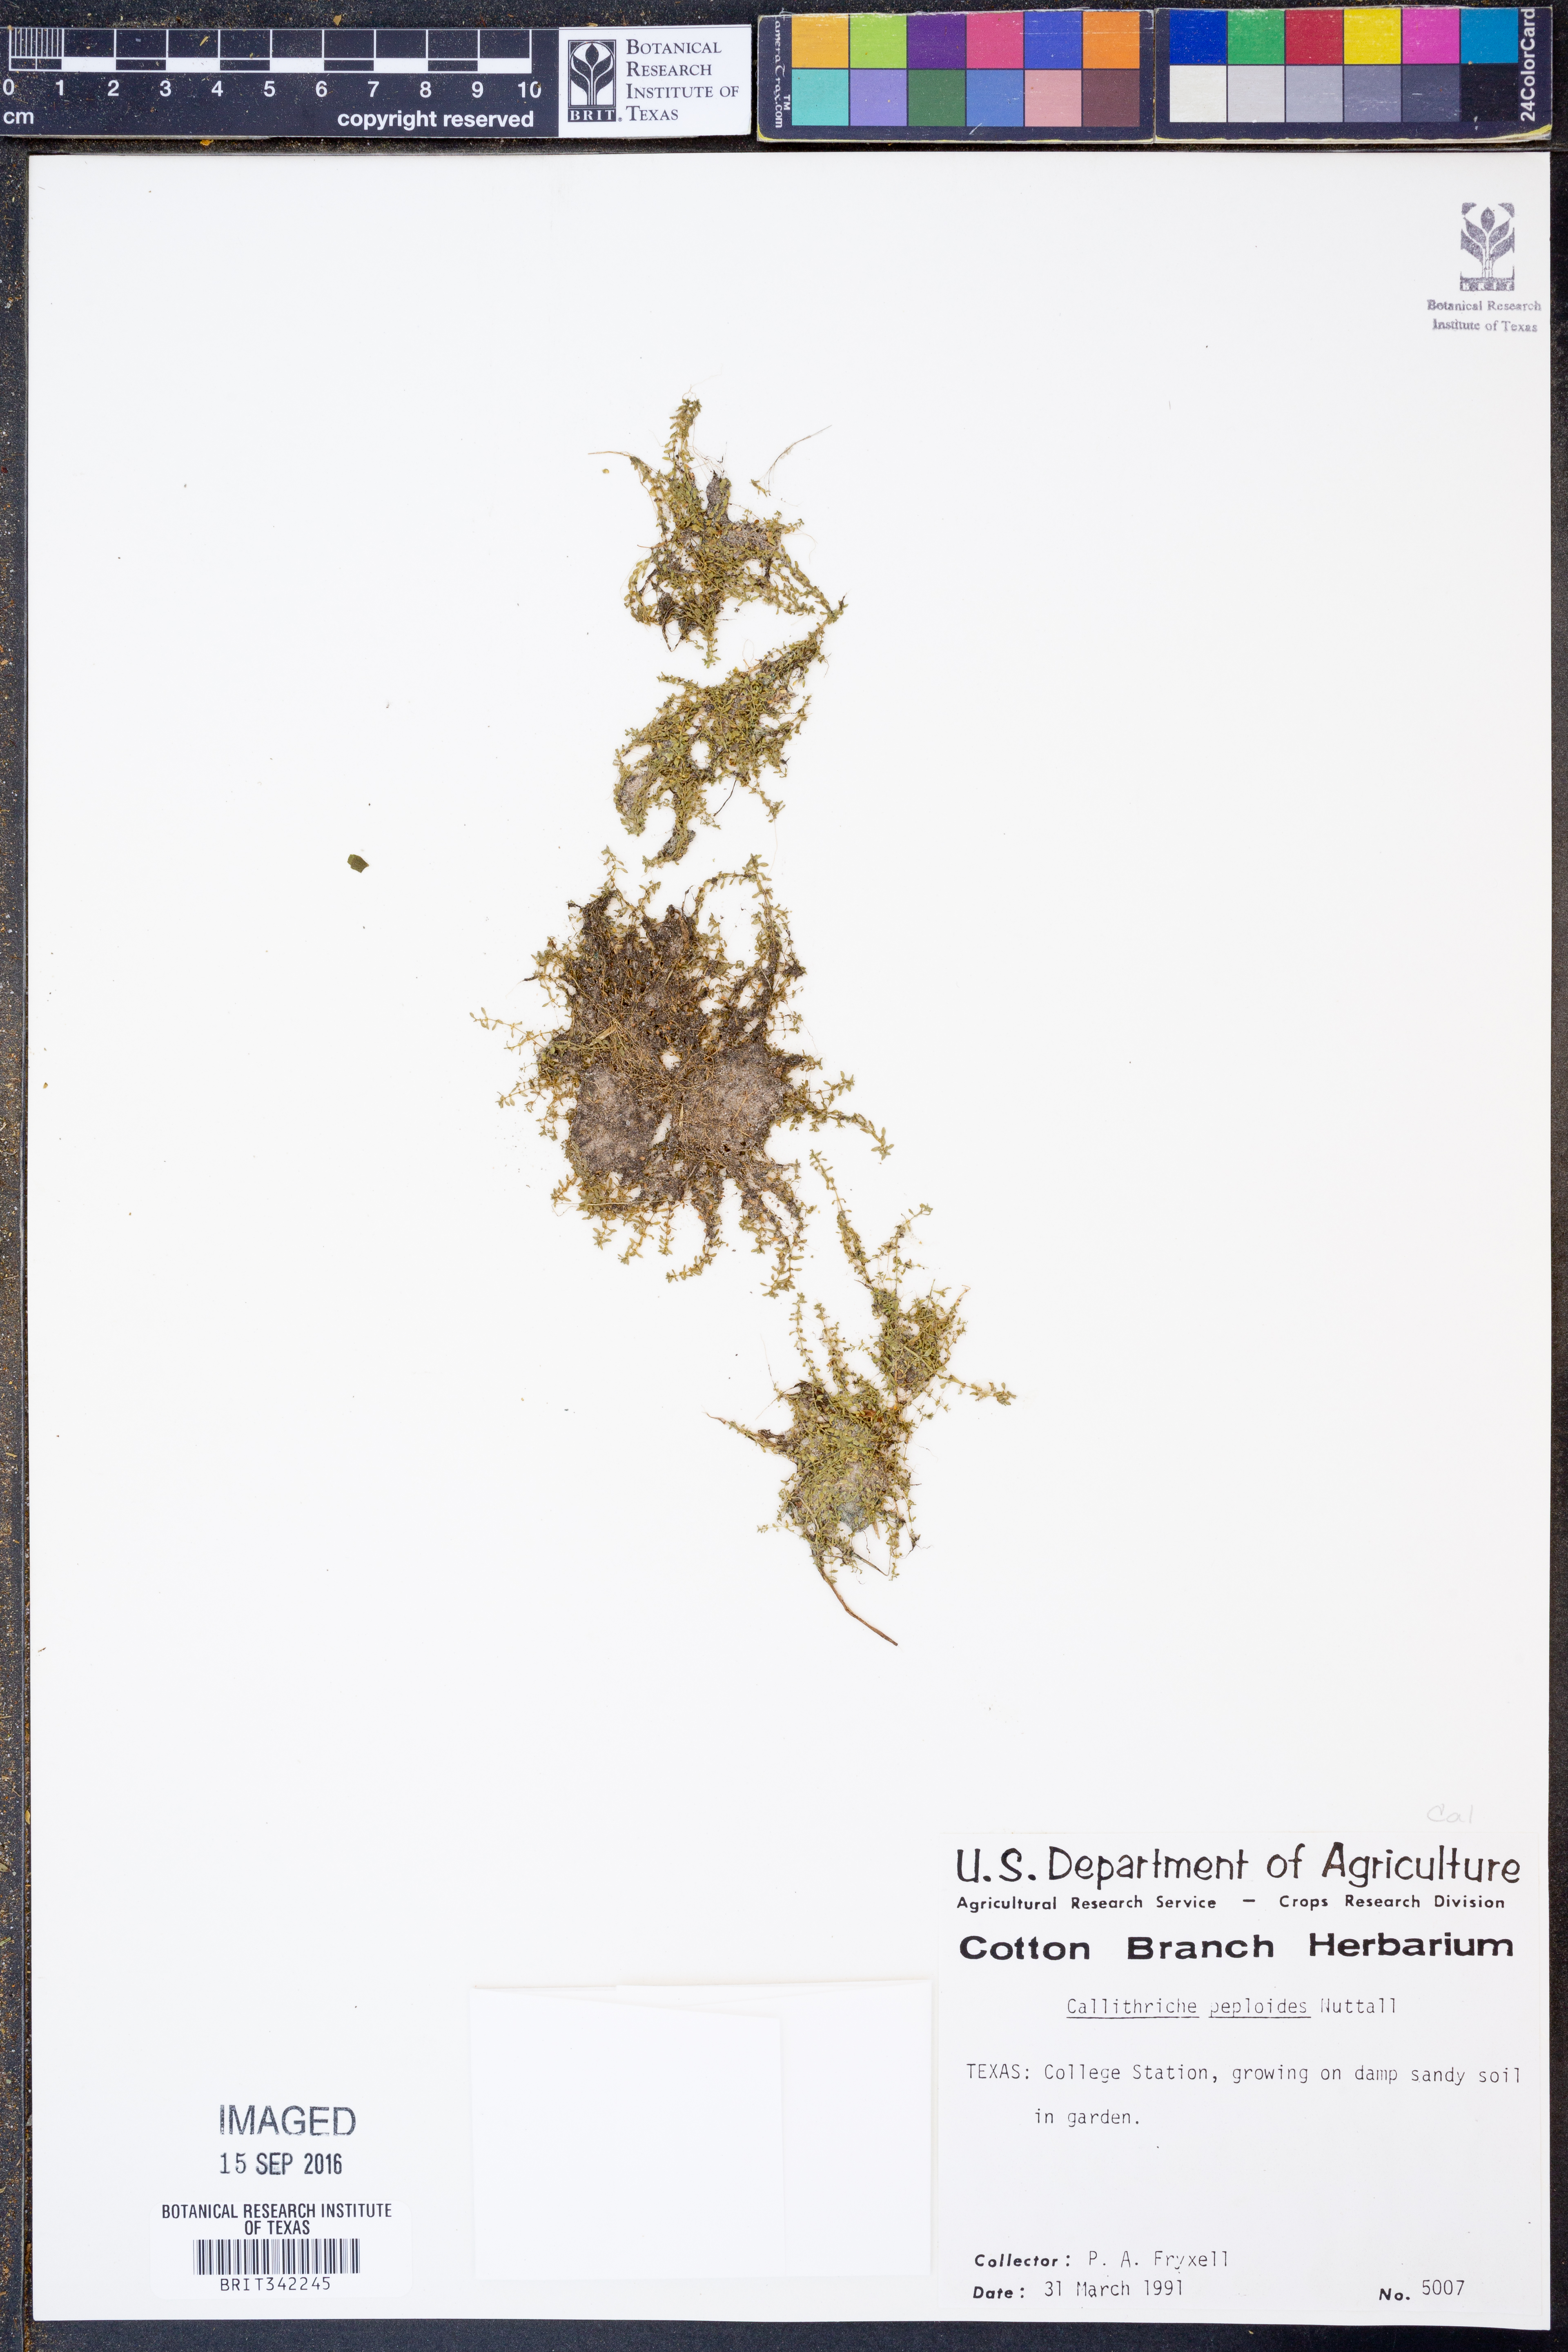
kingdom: Plantae
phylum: Tracheophyta
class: Magnoliopsida
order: Lamiales
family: Plantaginaceae
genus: Callitriche
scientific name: Callitriche peploides
